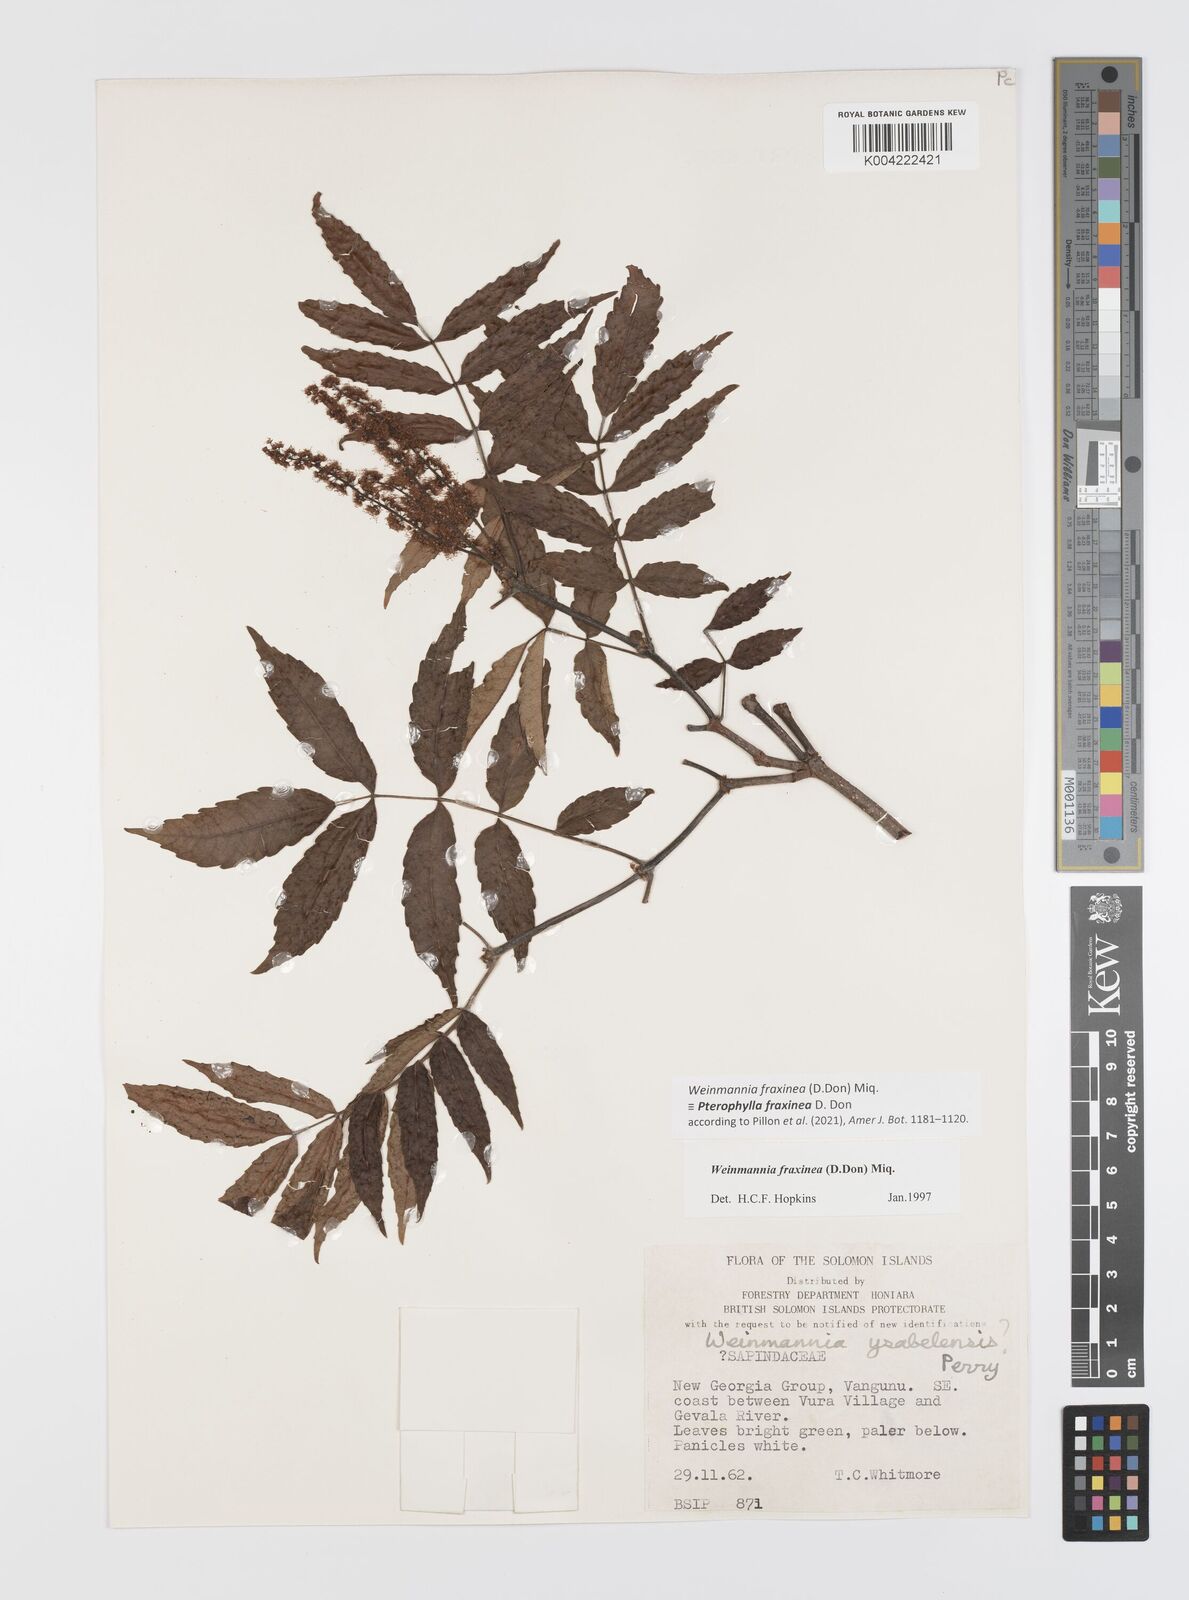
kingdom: Plantae
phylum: Tracheophyta
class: Magnoliopsida
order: Oxalidales
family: Cunoniaceae
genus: Pterophylla
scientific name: Pterophylla fraxinea
